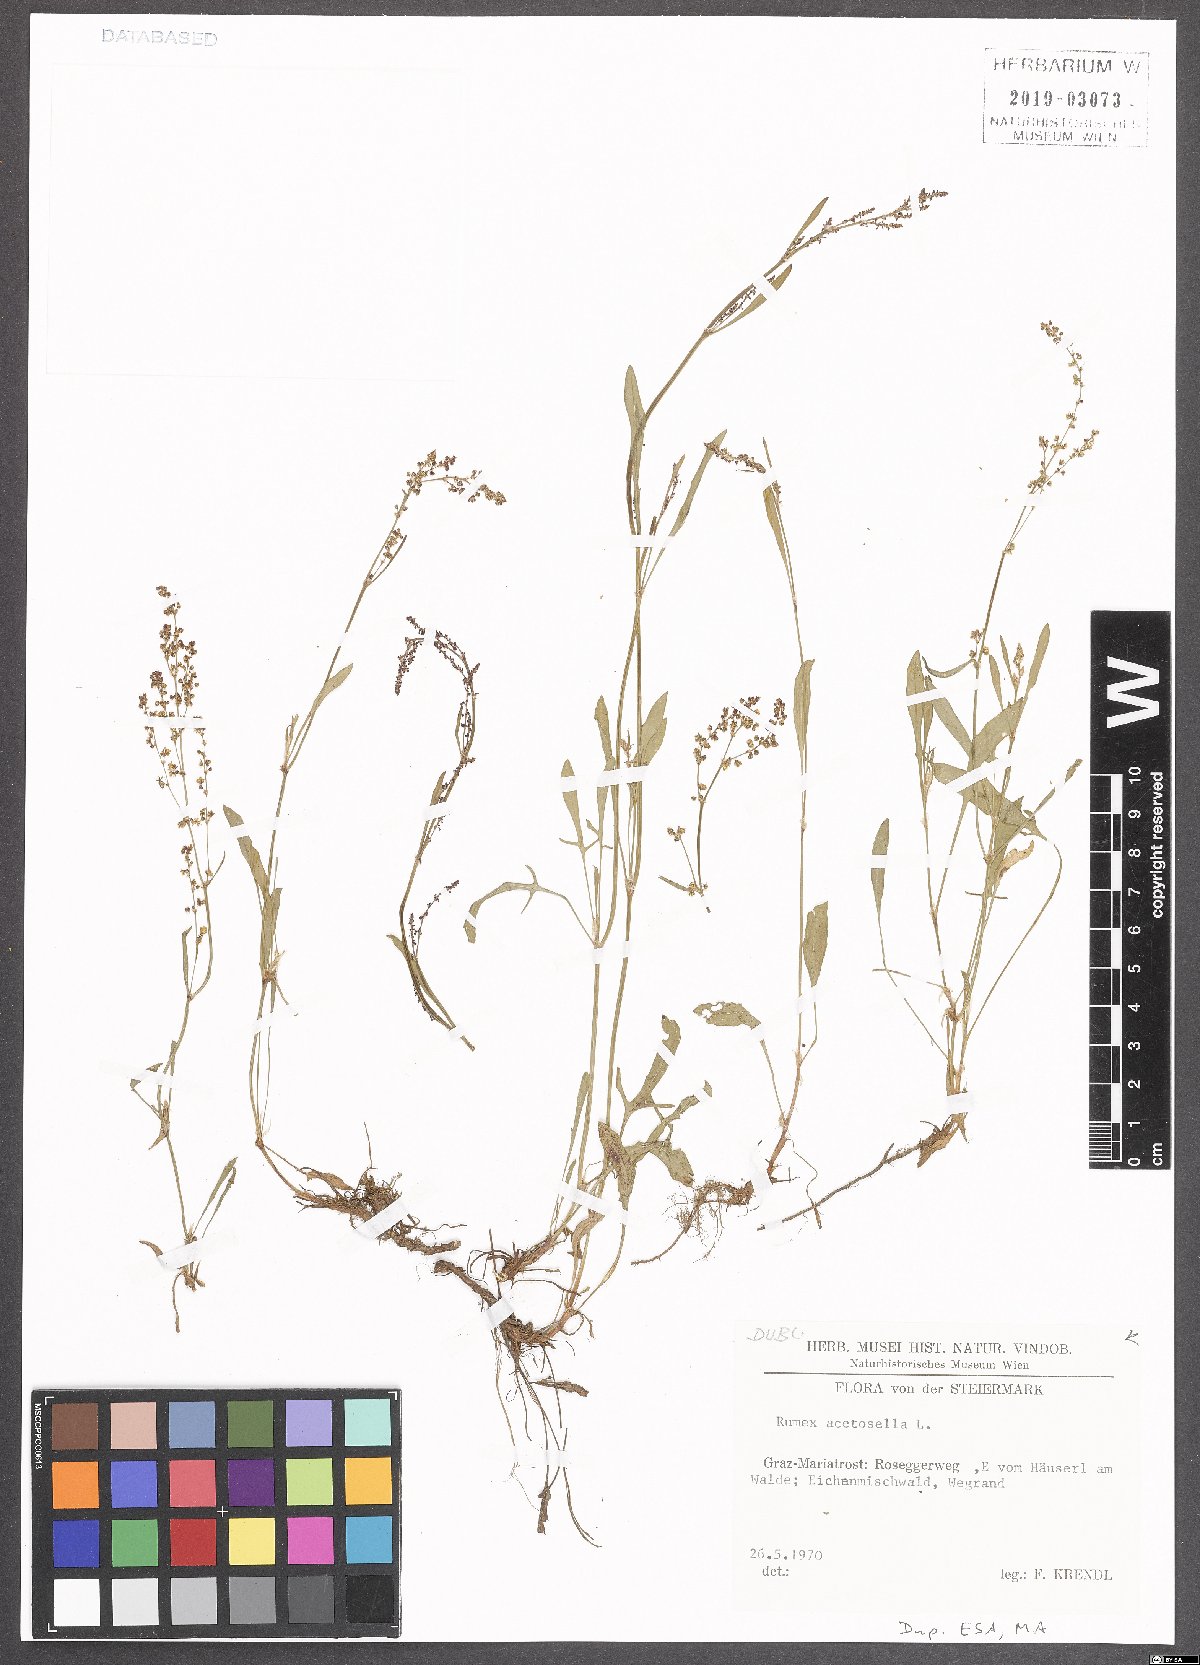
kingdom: Plantae
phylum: Tracheophyta
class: Magnoliopsida
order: Caryophyllales
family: Polygonaceae
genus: Rumex
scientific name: Rumex acetosella
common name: Common sheep sorrel
